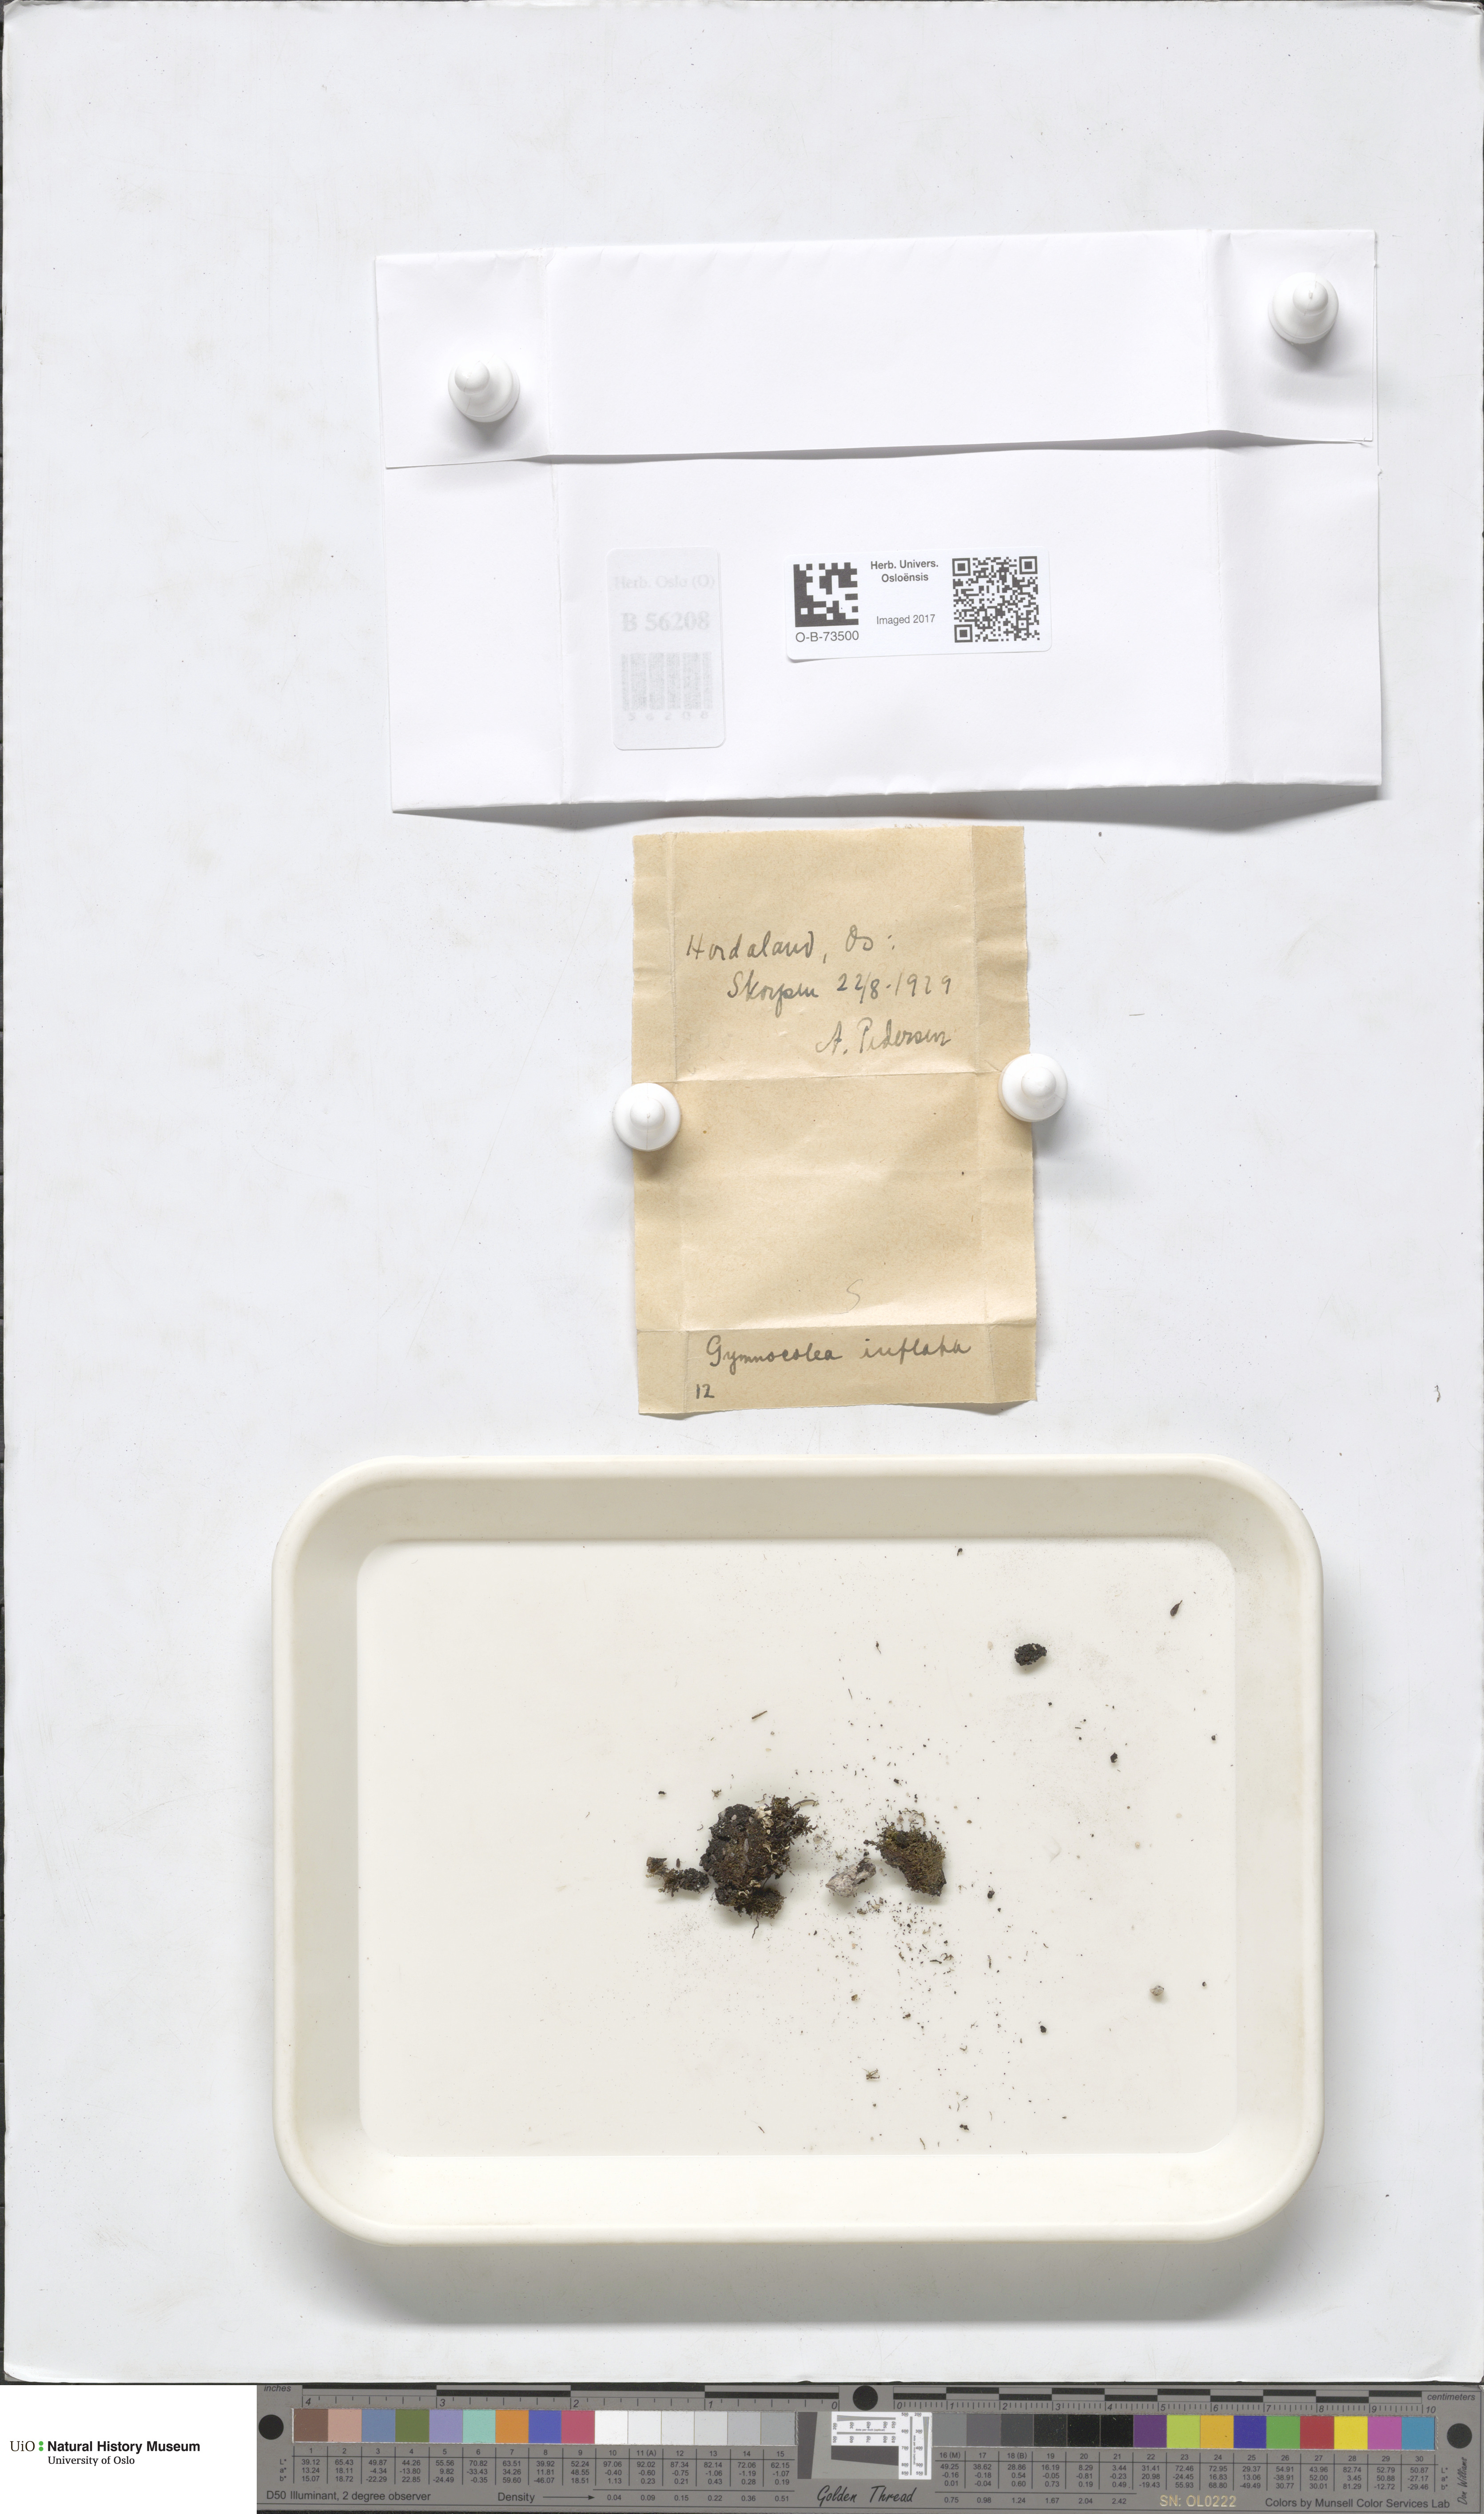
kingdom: Plantae
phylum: Marchantiophyta
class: Jungermanniopsida
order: Jungermanniales
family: Anastrophyllaceae
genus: Gymnocolea
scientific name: Gymnocolea inflata
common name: Inflated notchwort
